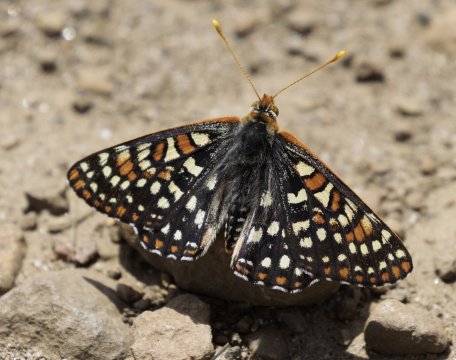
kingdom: Animalia
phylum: Arthropoda
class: Insecta
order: Lepidoptera
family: Nymphalidae
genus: Occidryas
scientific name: Occidryas colon
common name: Snowberry Checkerspot
